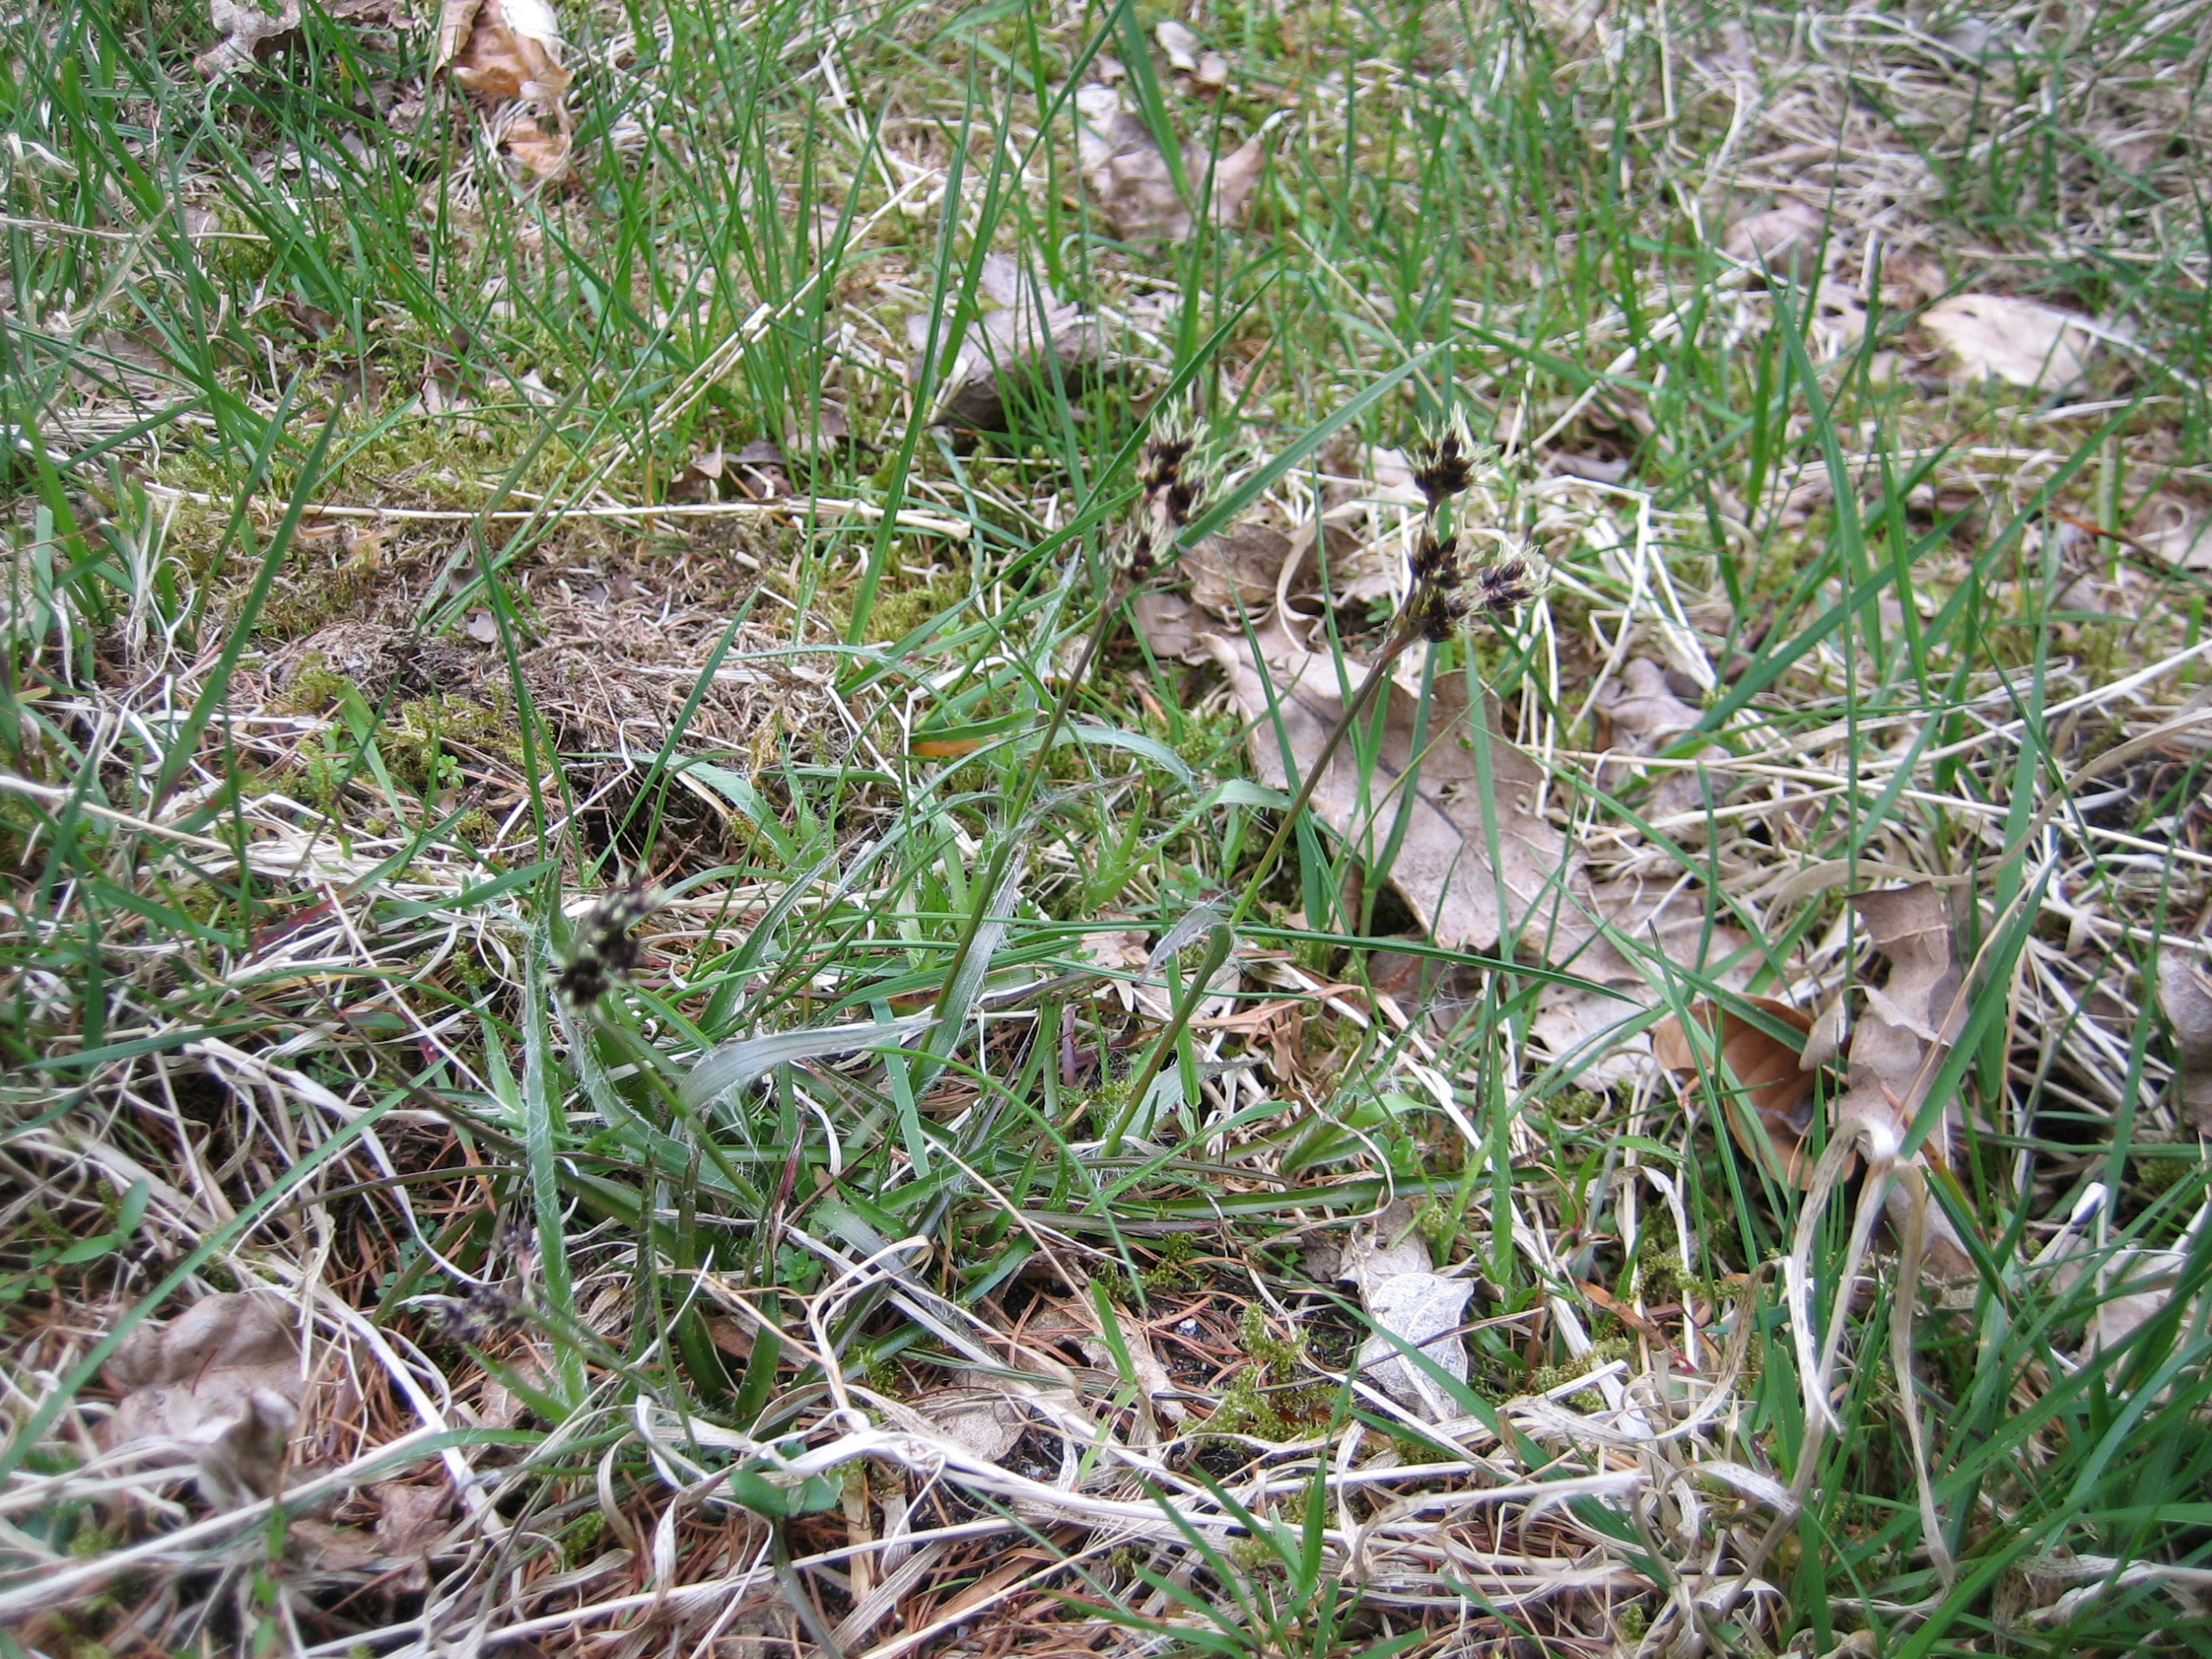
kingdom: Plantae
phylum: Tracheophyta
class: Liliopsida
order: Poales
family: Juncaceae
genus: Luzula
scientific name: Luzula campestris
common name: Mark-frytle
